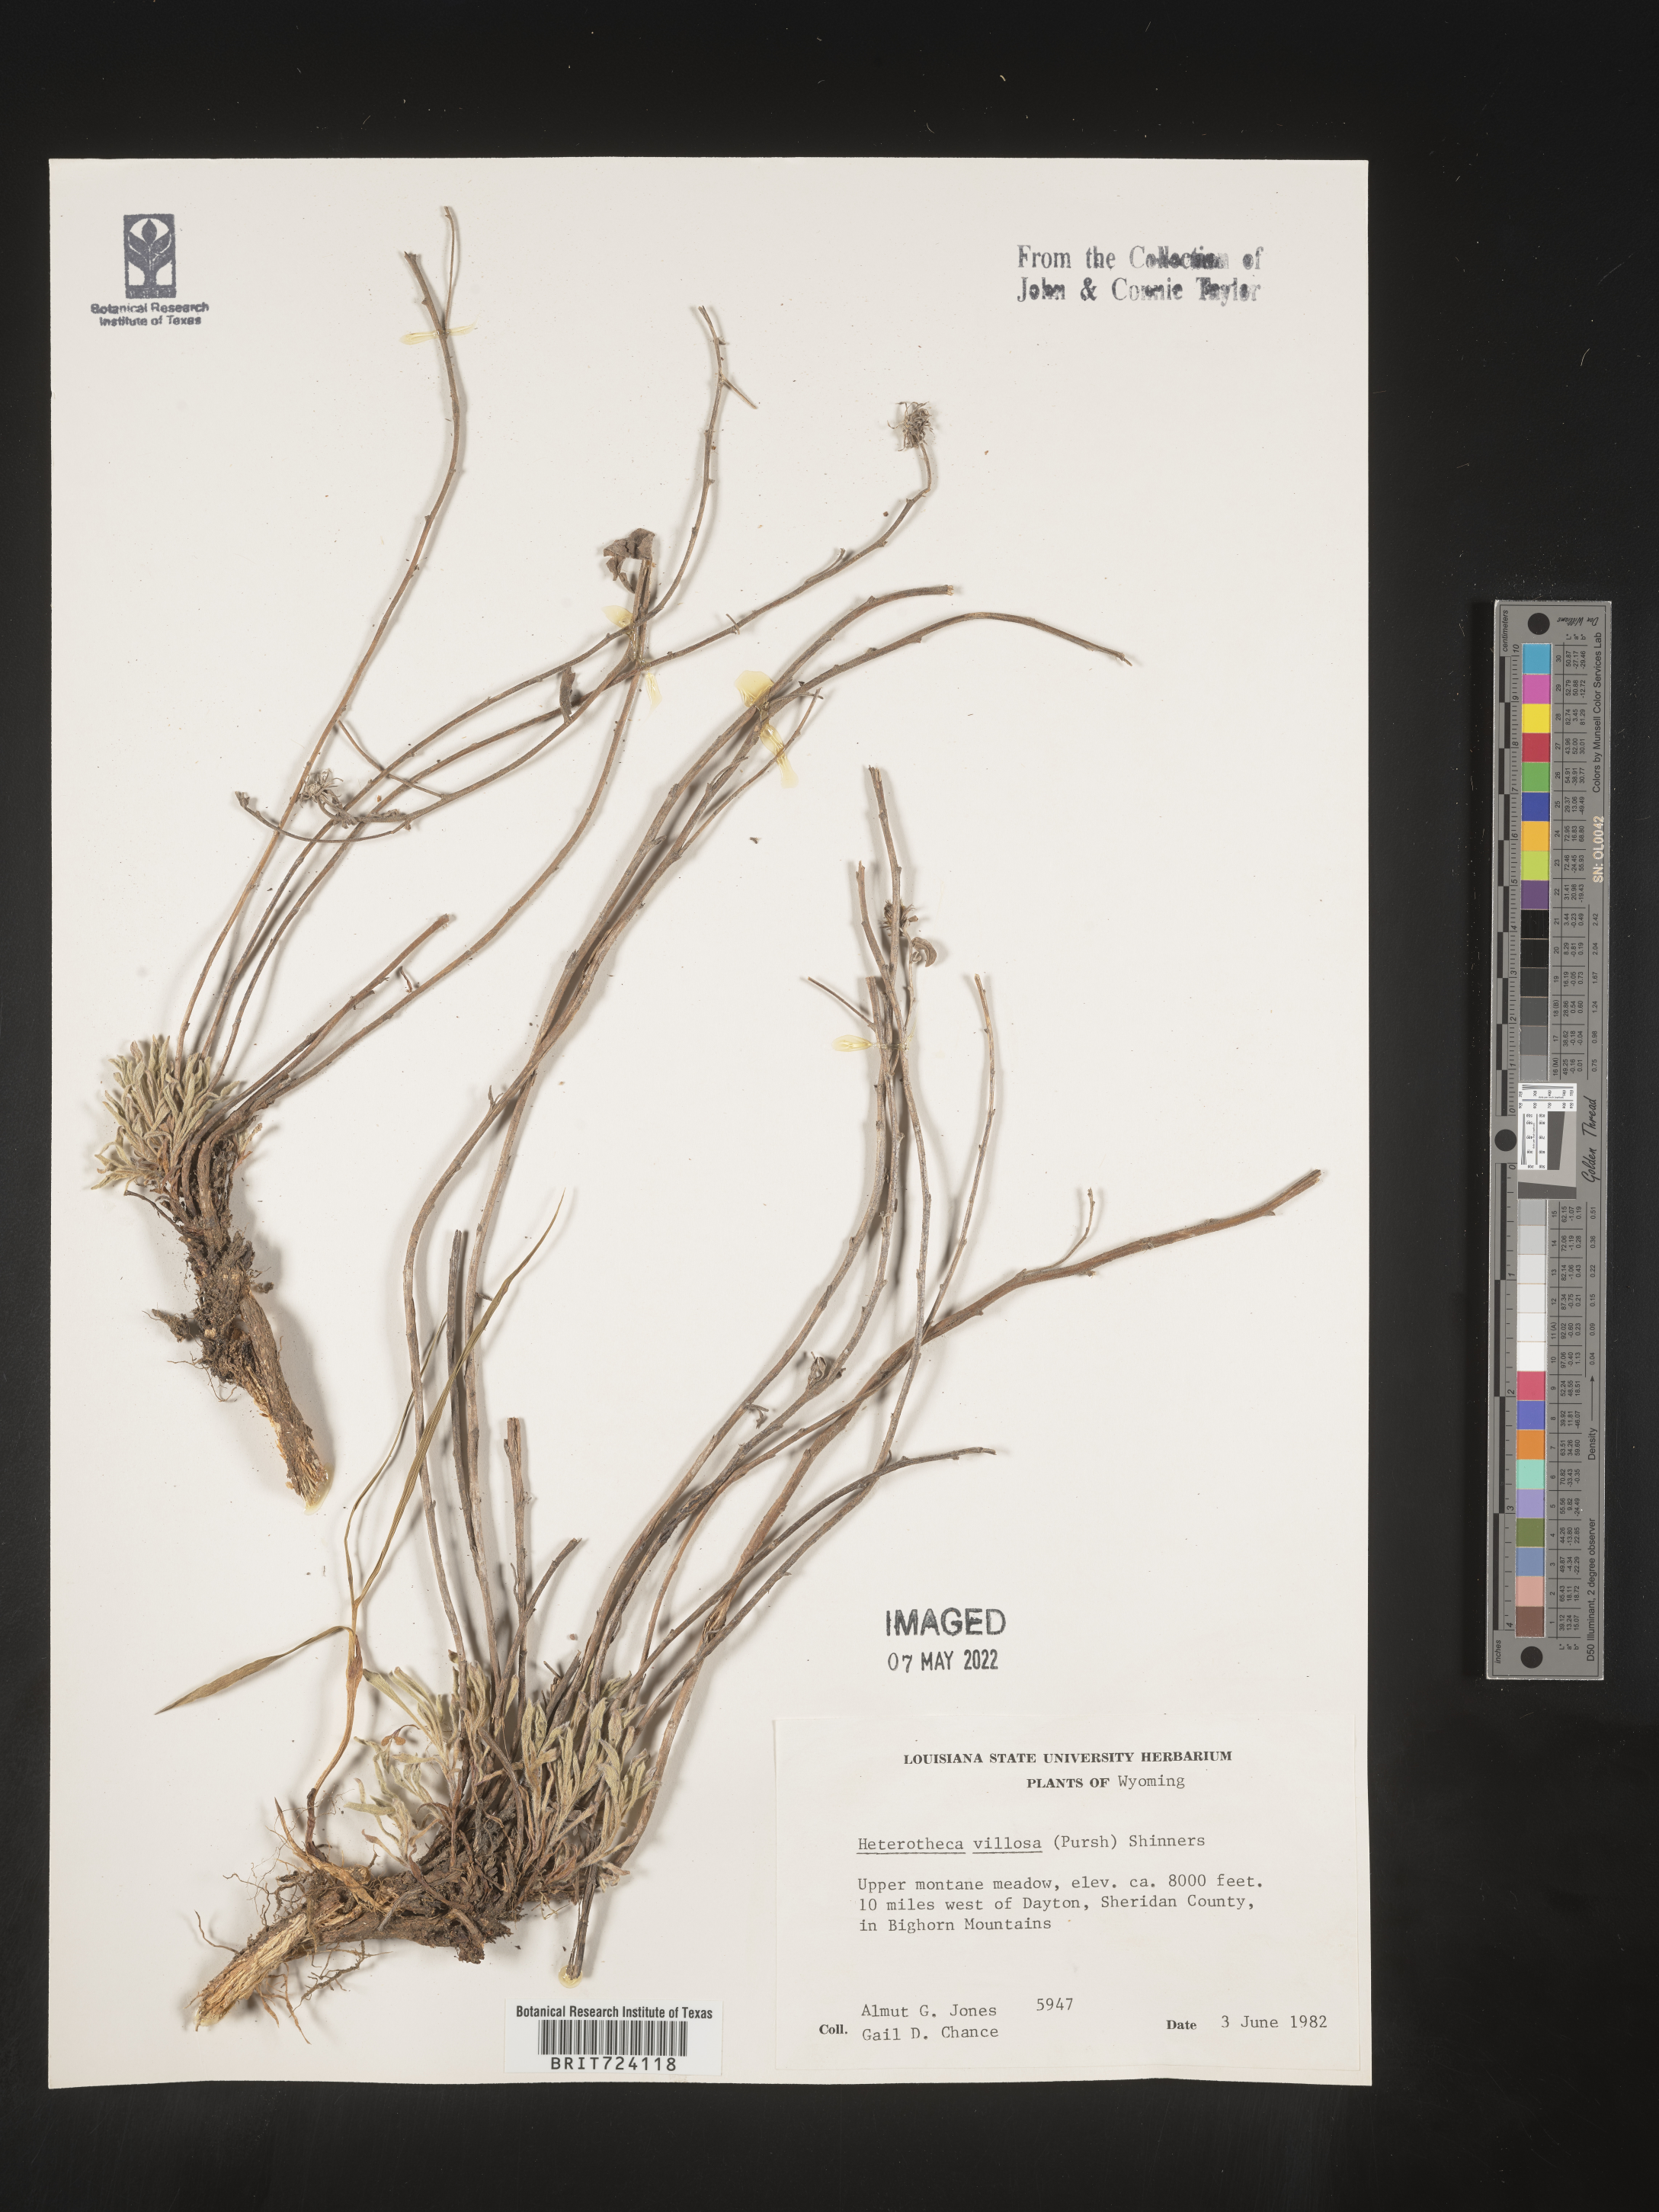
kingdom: Plantae
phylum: Tracheophyta
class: Magnoliopsida
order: Asterales
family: Asteraceae
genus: Heterotheca
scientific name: Heterotheca villosa
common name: Hairy false goldenaster
